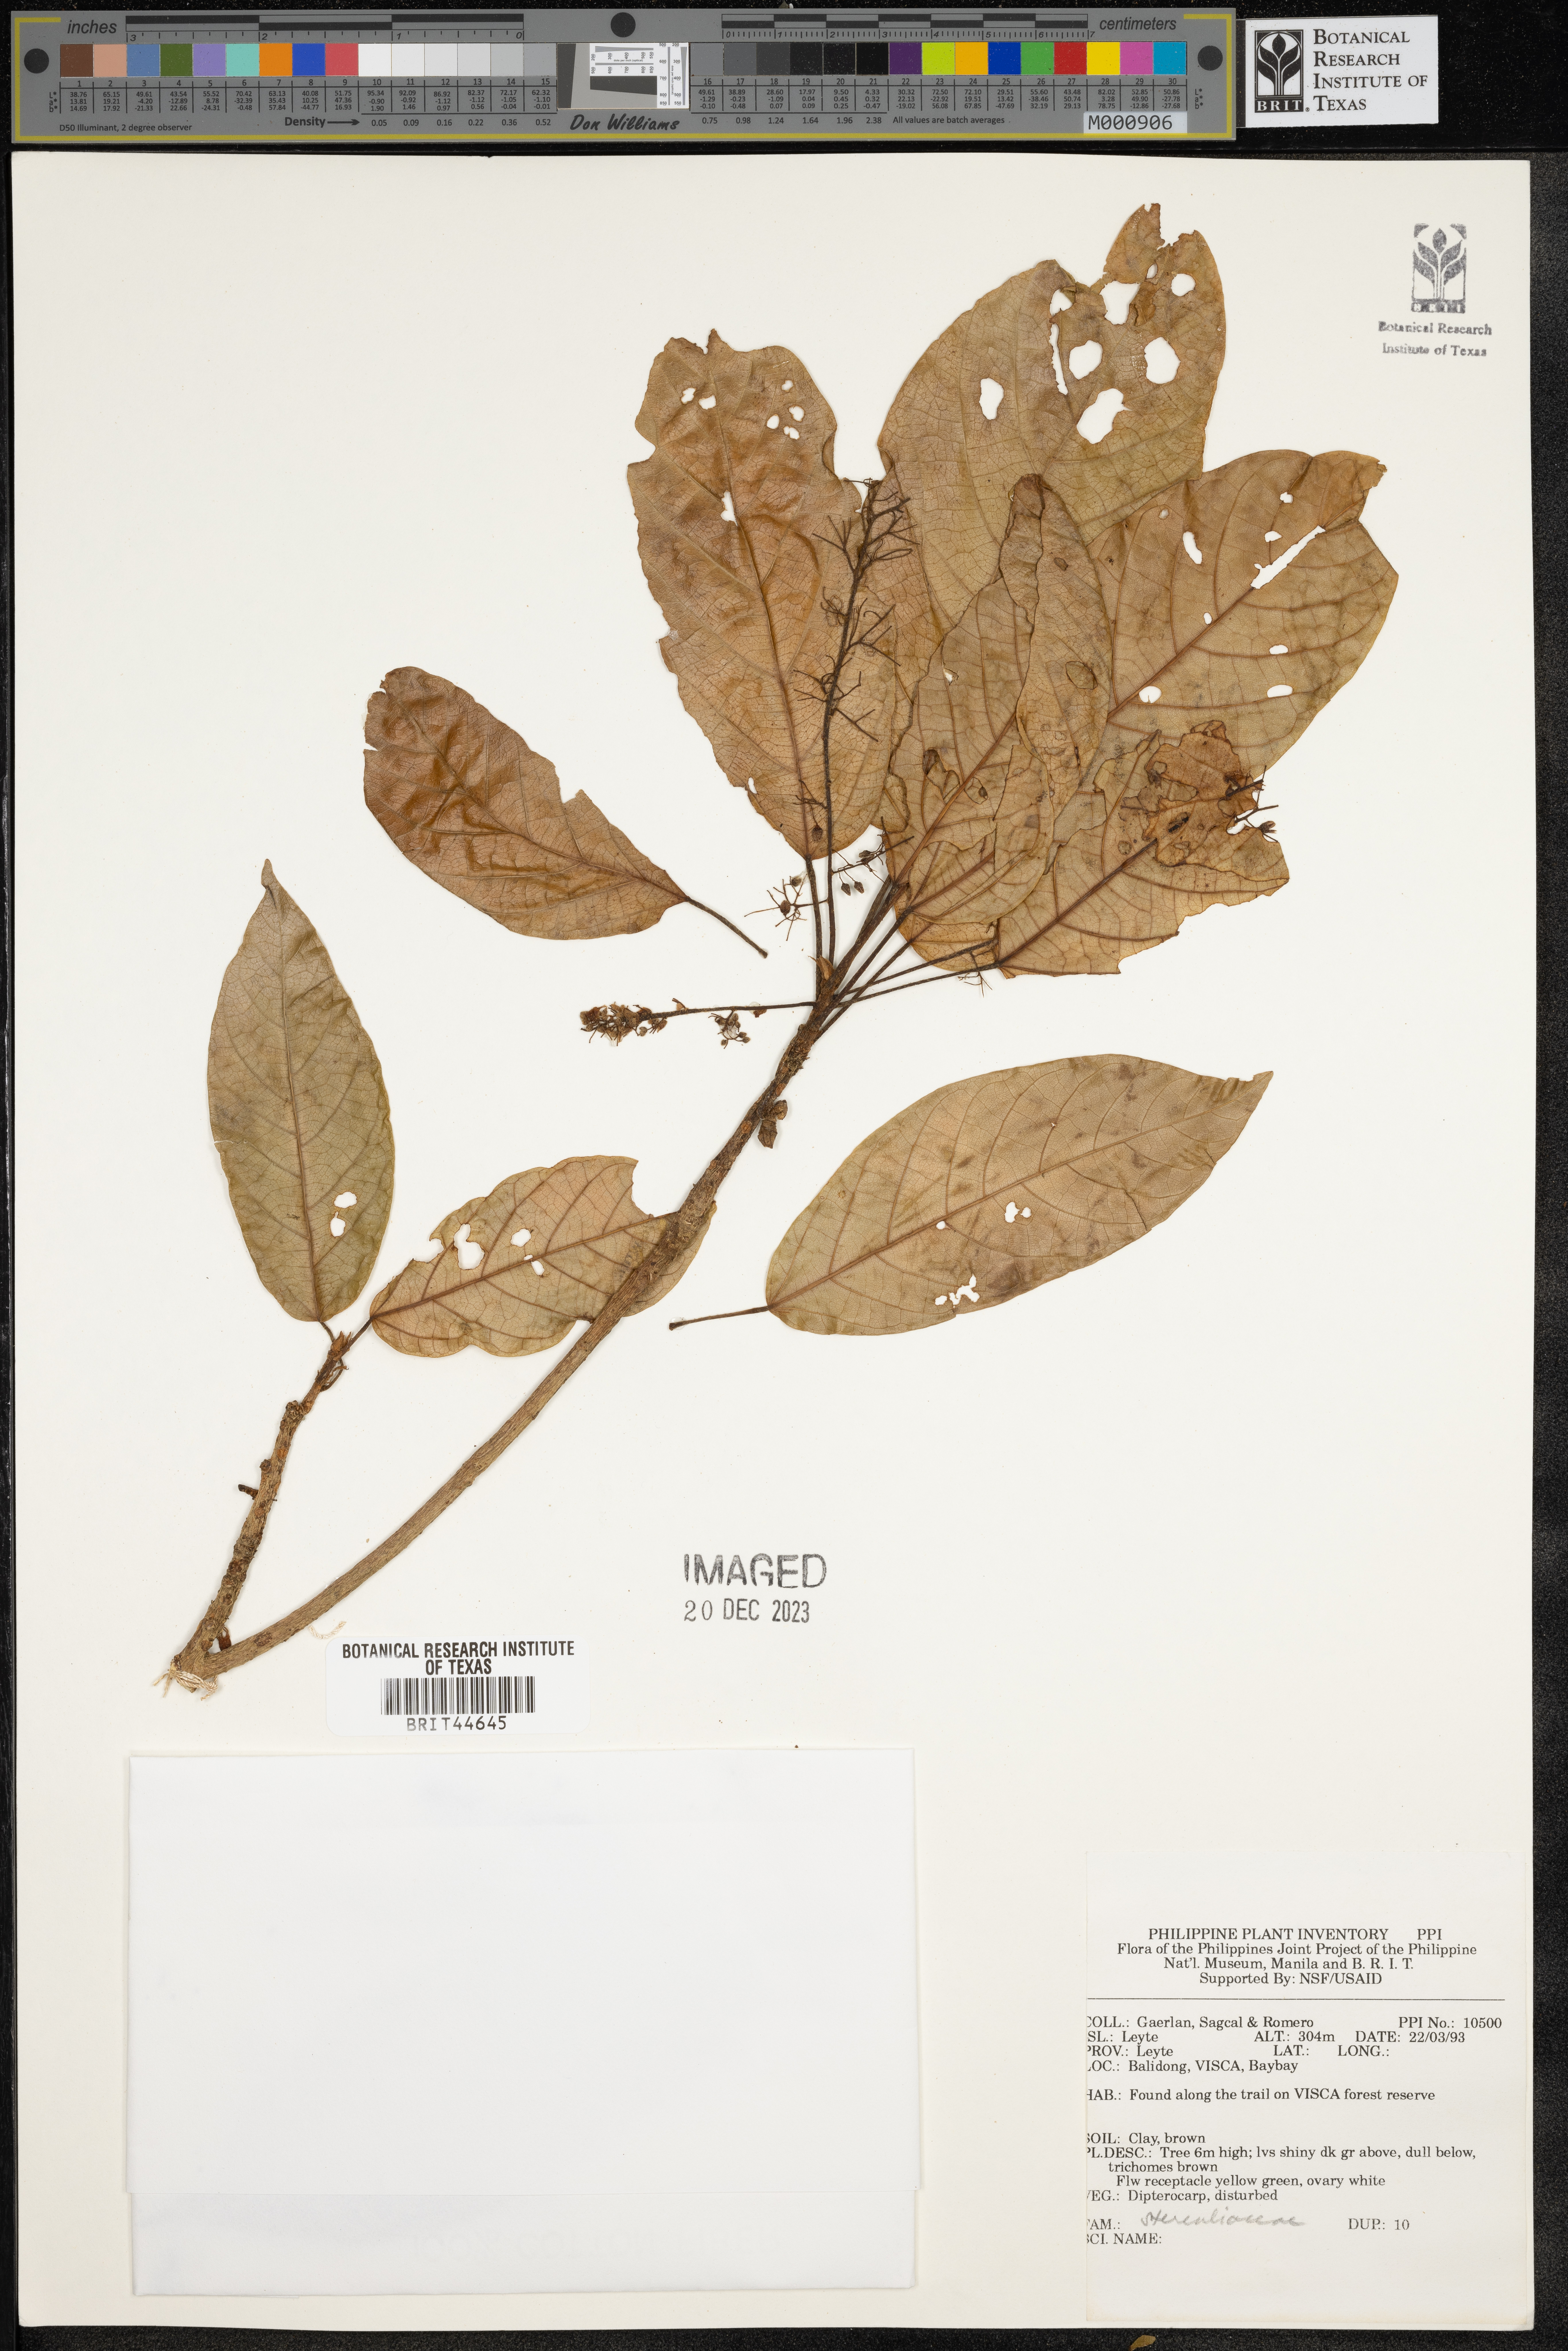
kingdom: Plantae
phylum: Tracheophyta
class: Magnoliopsida
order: Malvales
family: Sterculiaceae
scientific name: Sterculiaceae
